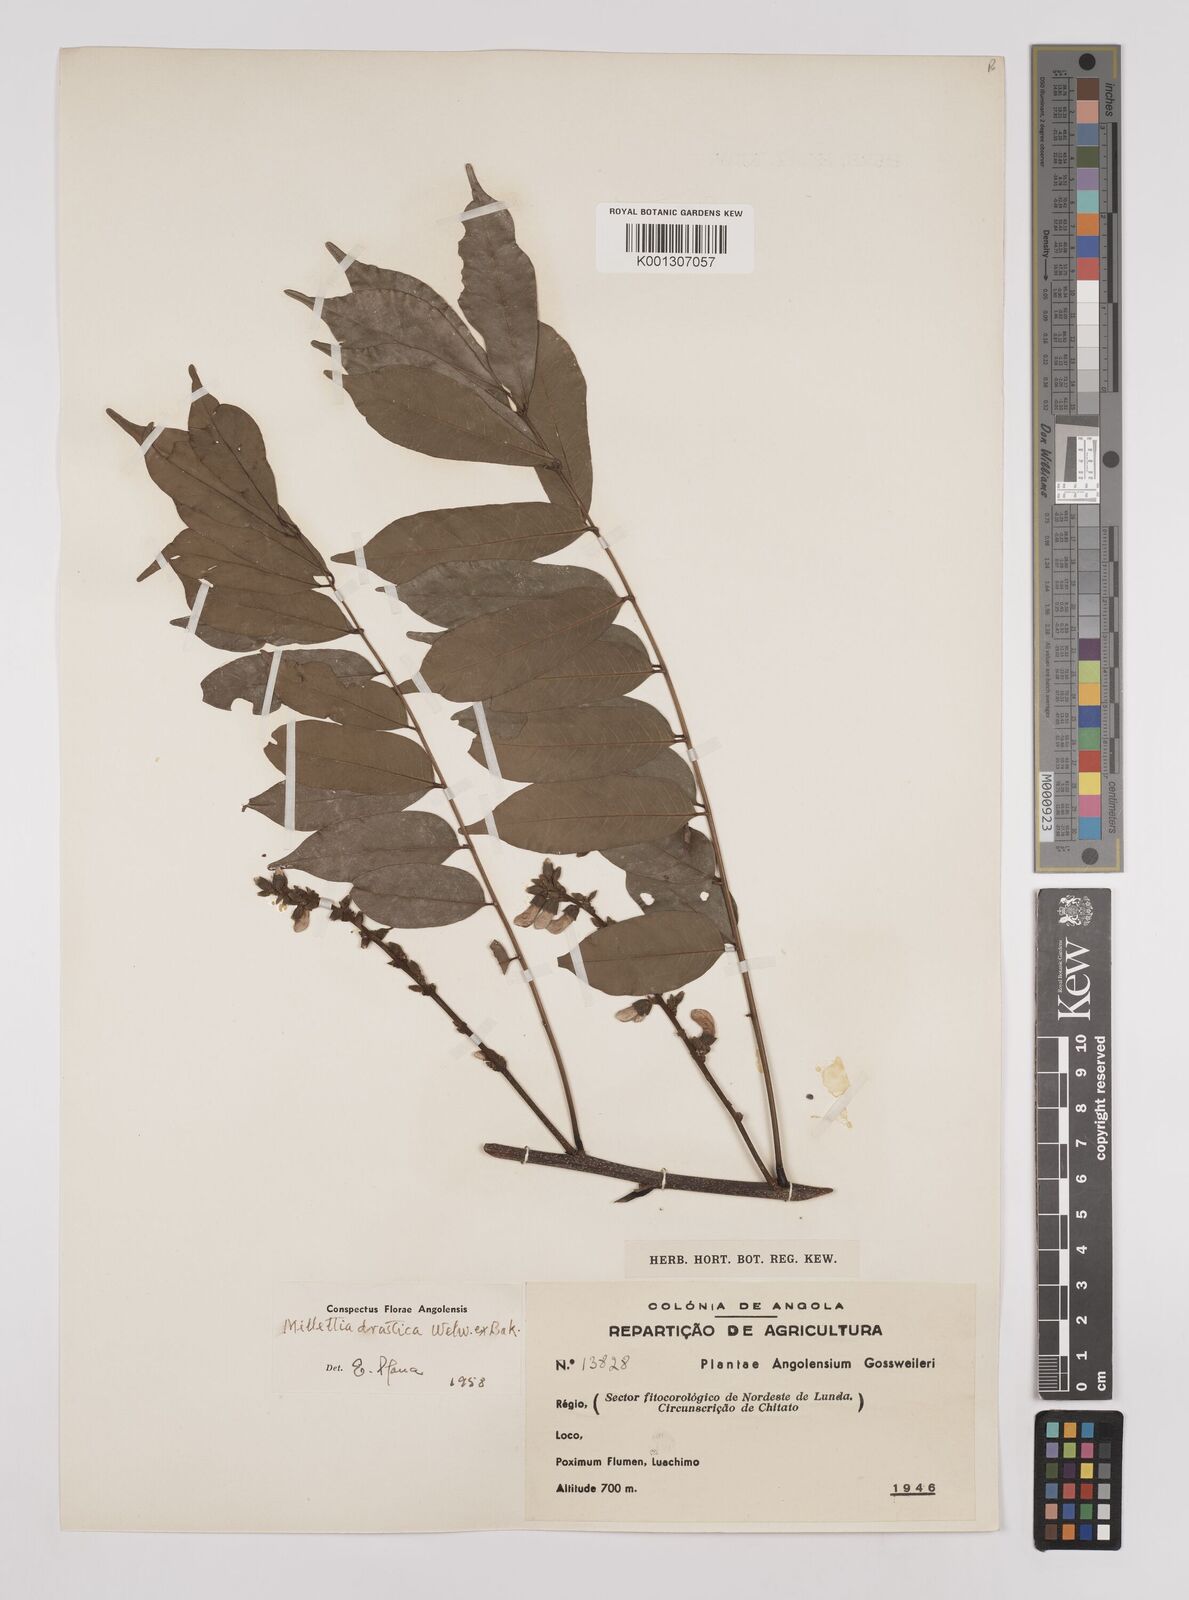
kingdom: Plantae
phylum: Tracheophyta
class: Magnoliopsida
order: Fabales
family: Fabaceae
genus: Millettia
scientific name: Millettia drastica
